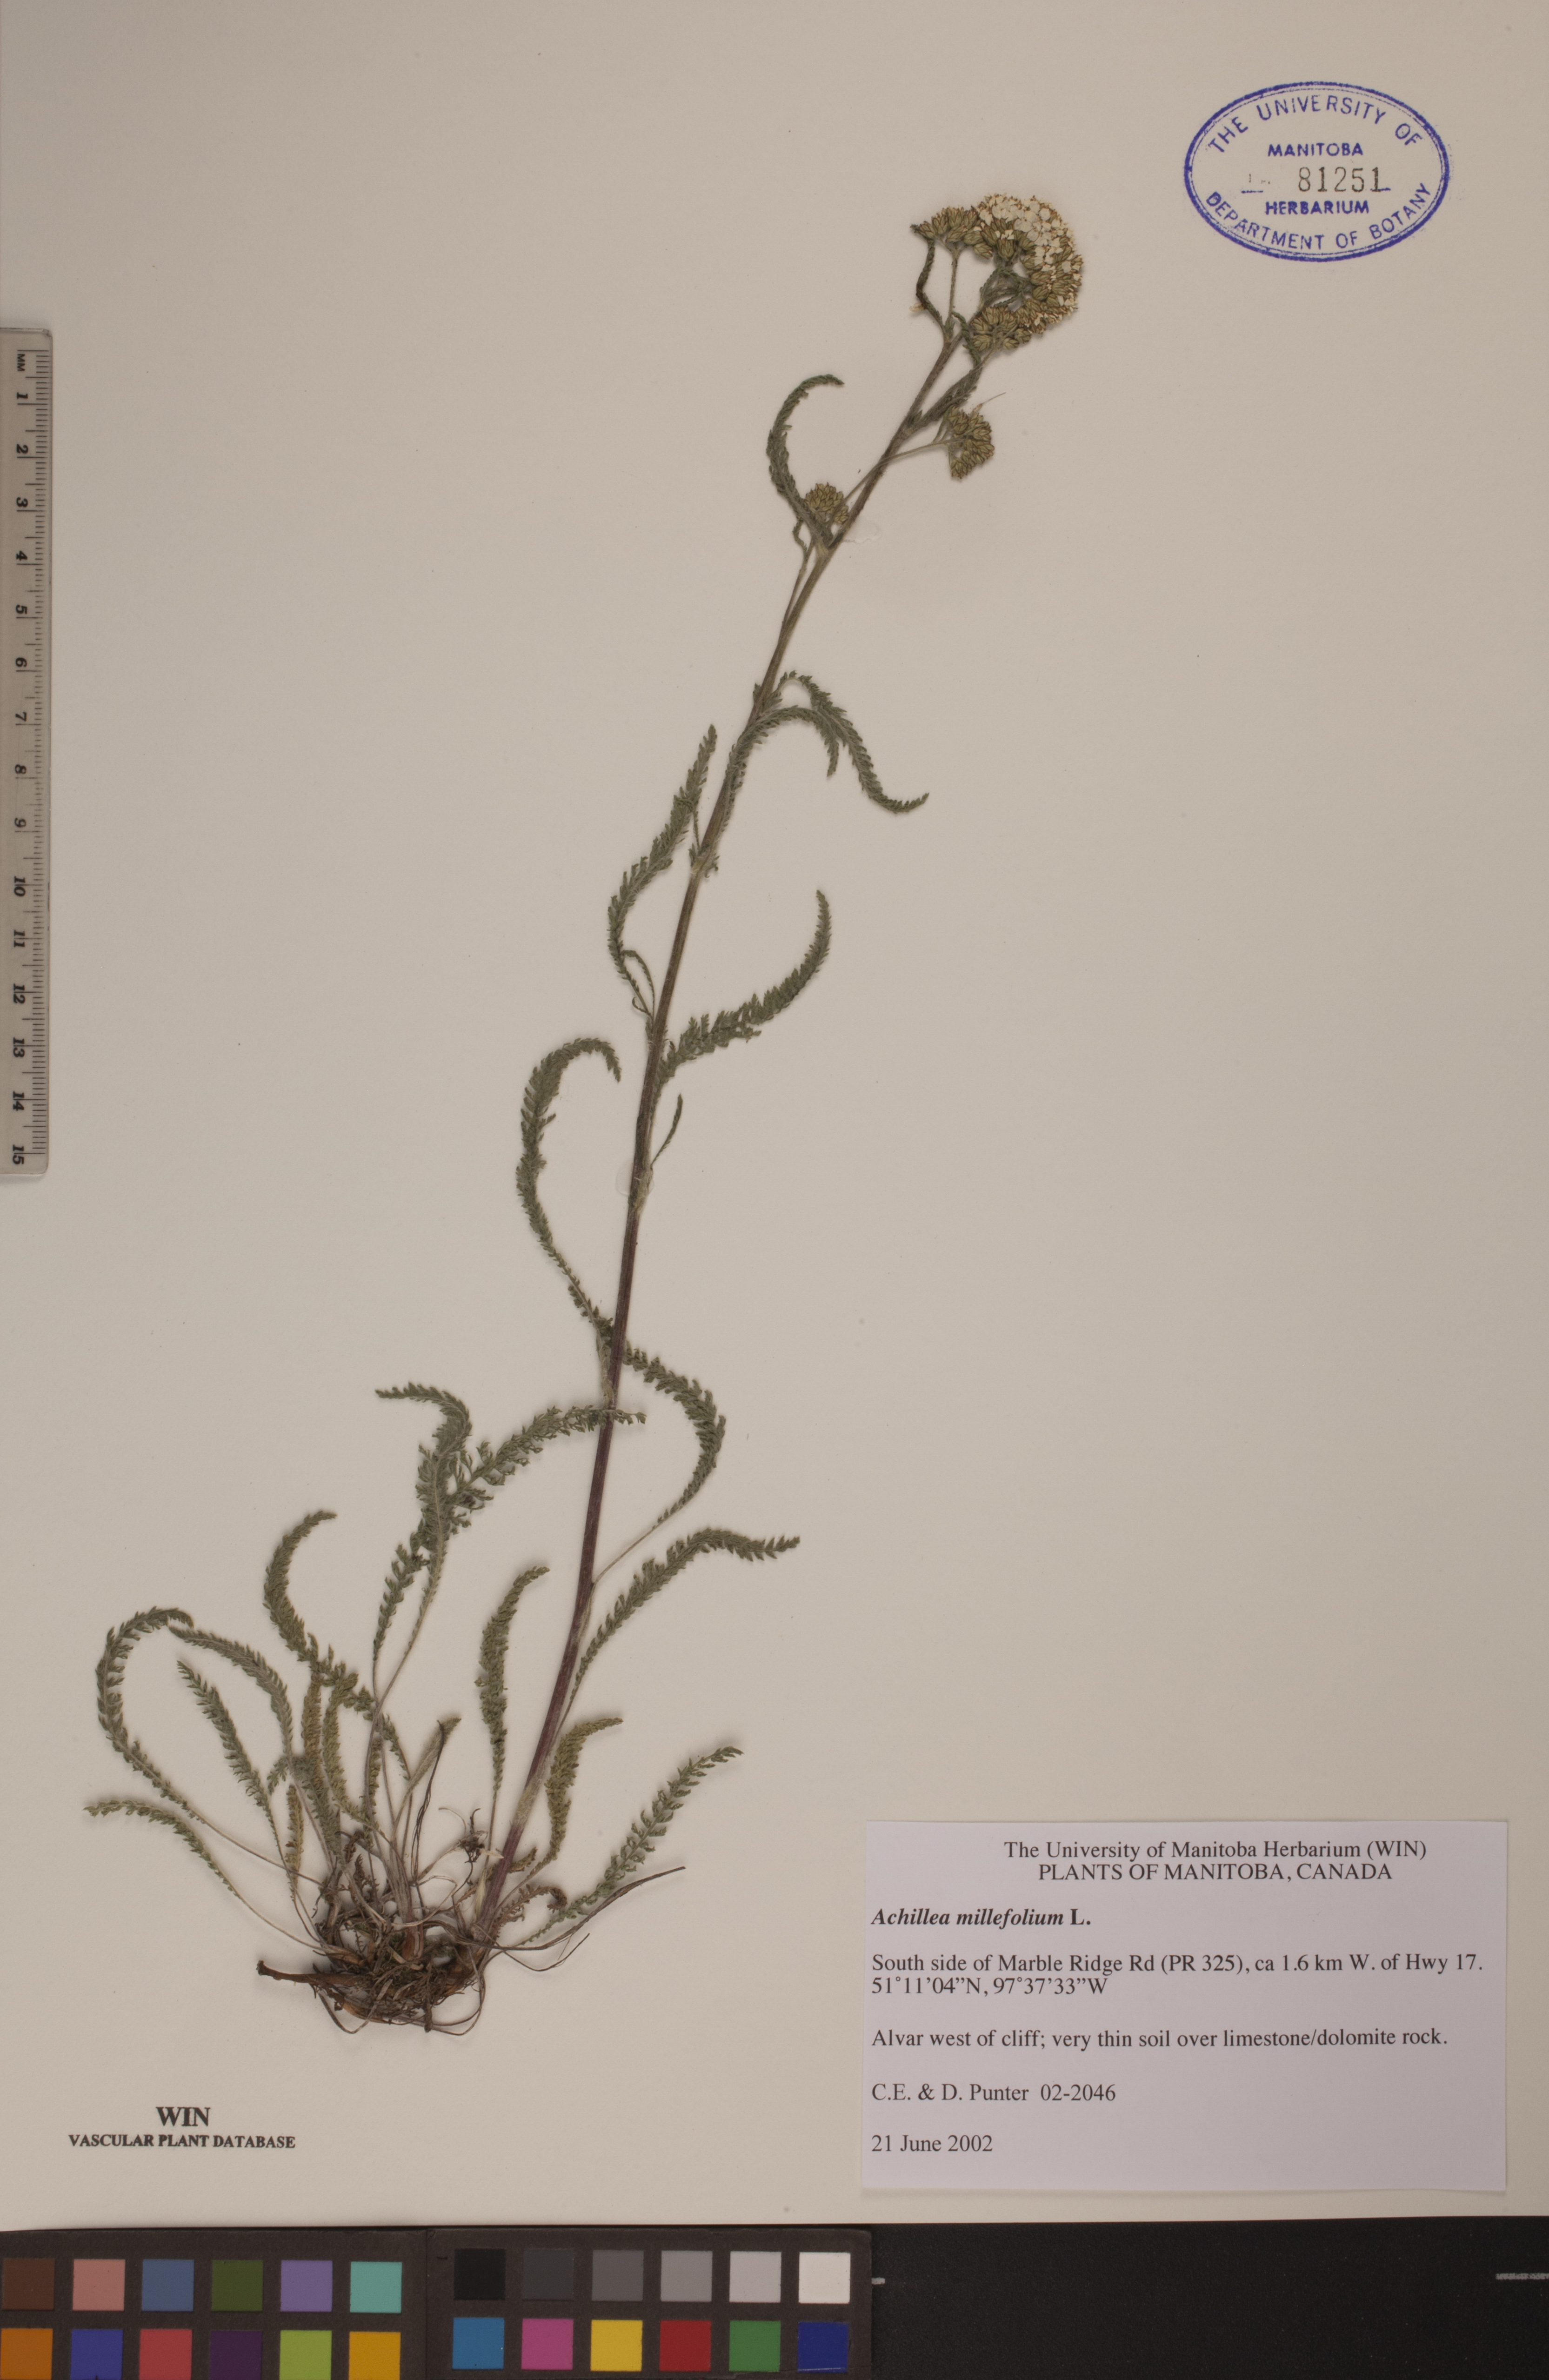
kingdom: Plantae
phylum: Tracheophyta
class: Magnoliopsida
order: Asterales
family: Asteraceae
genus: Achillea
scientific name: Achillea millefolium
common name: Yarrow
